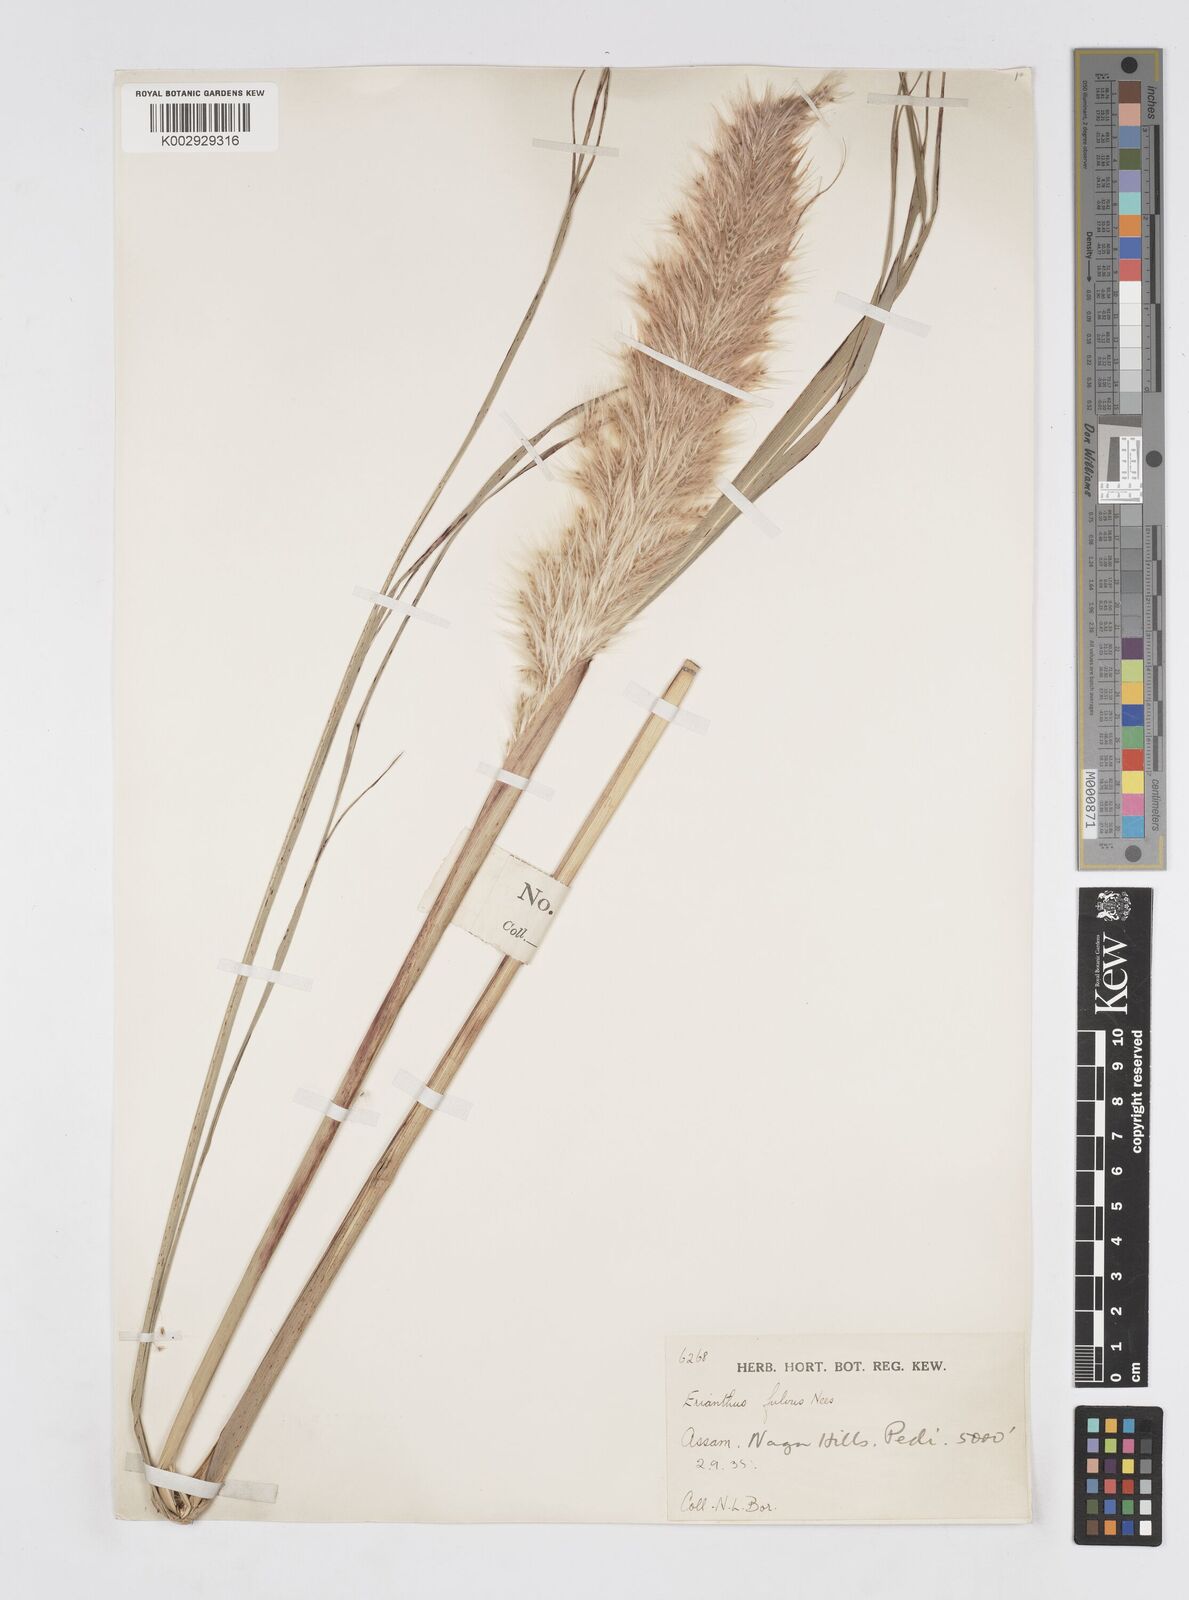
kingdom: Plantae
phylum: Tracheophyta
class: Liliopsida
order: Poales
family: Poaceae
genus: Tripidium
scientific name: Tripidium rufipilum
